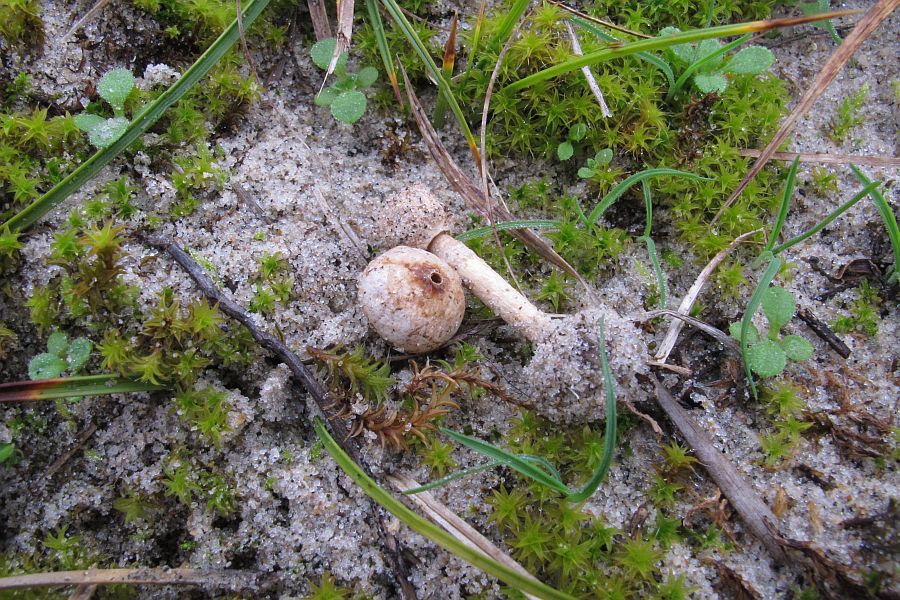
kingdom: Fungi
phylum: Basidiomycota
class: Agaricomycetes
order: Agaricales
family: Agaricaceae
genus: Tulostoma
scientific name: Tulostoma brumale
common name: vinter-stilkbovist
